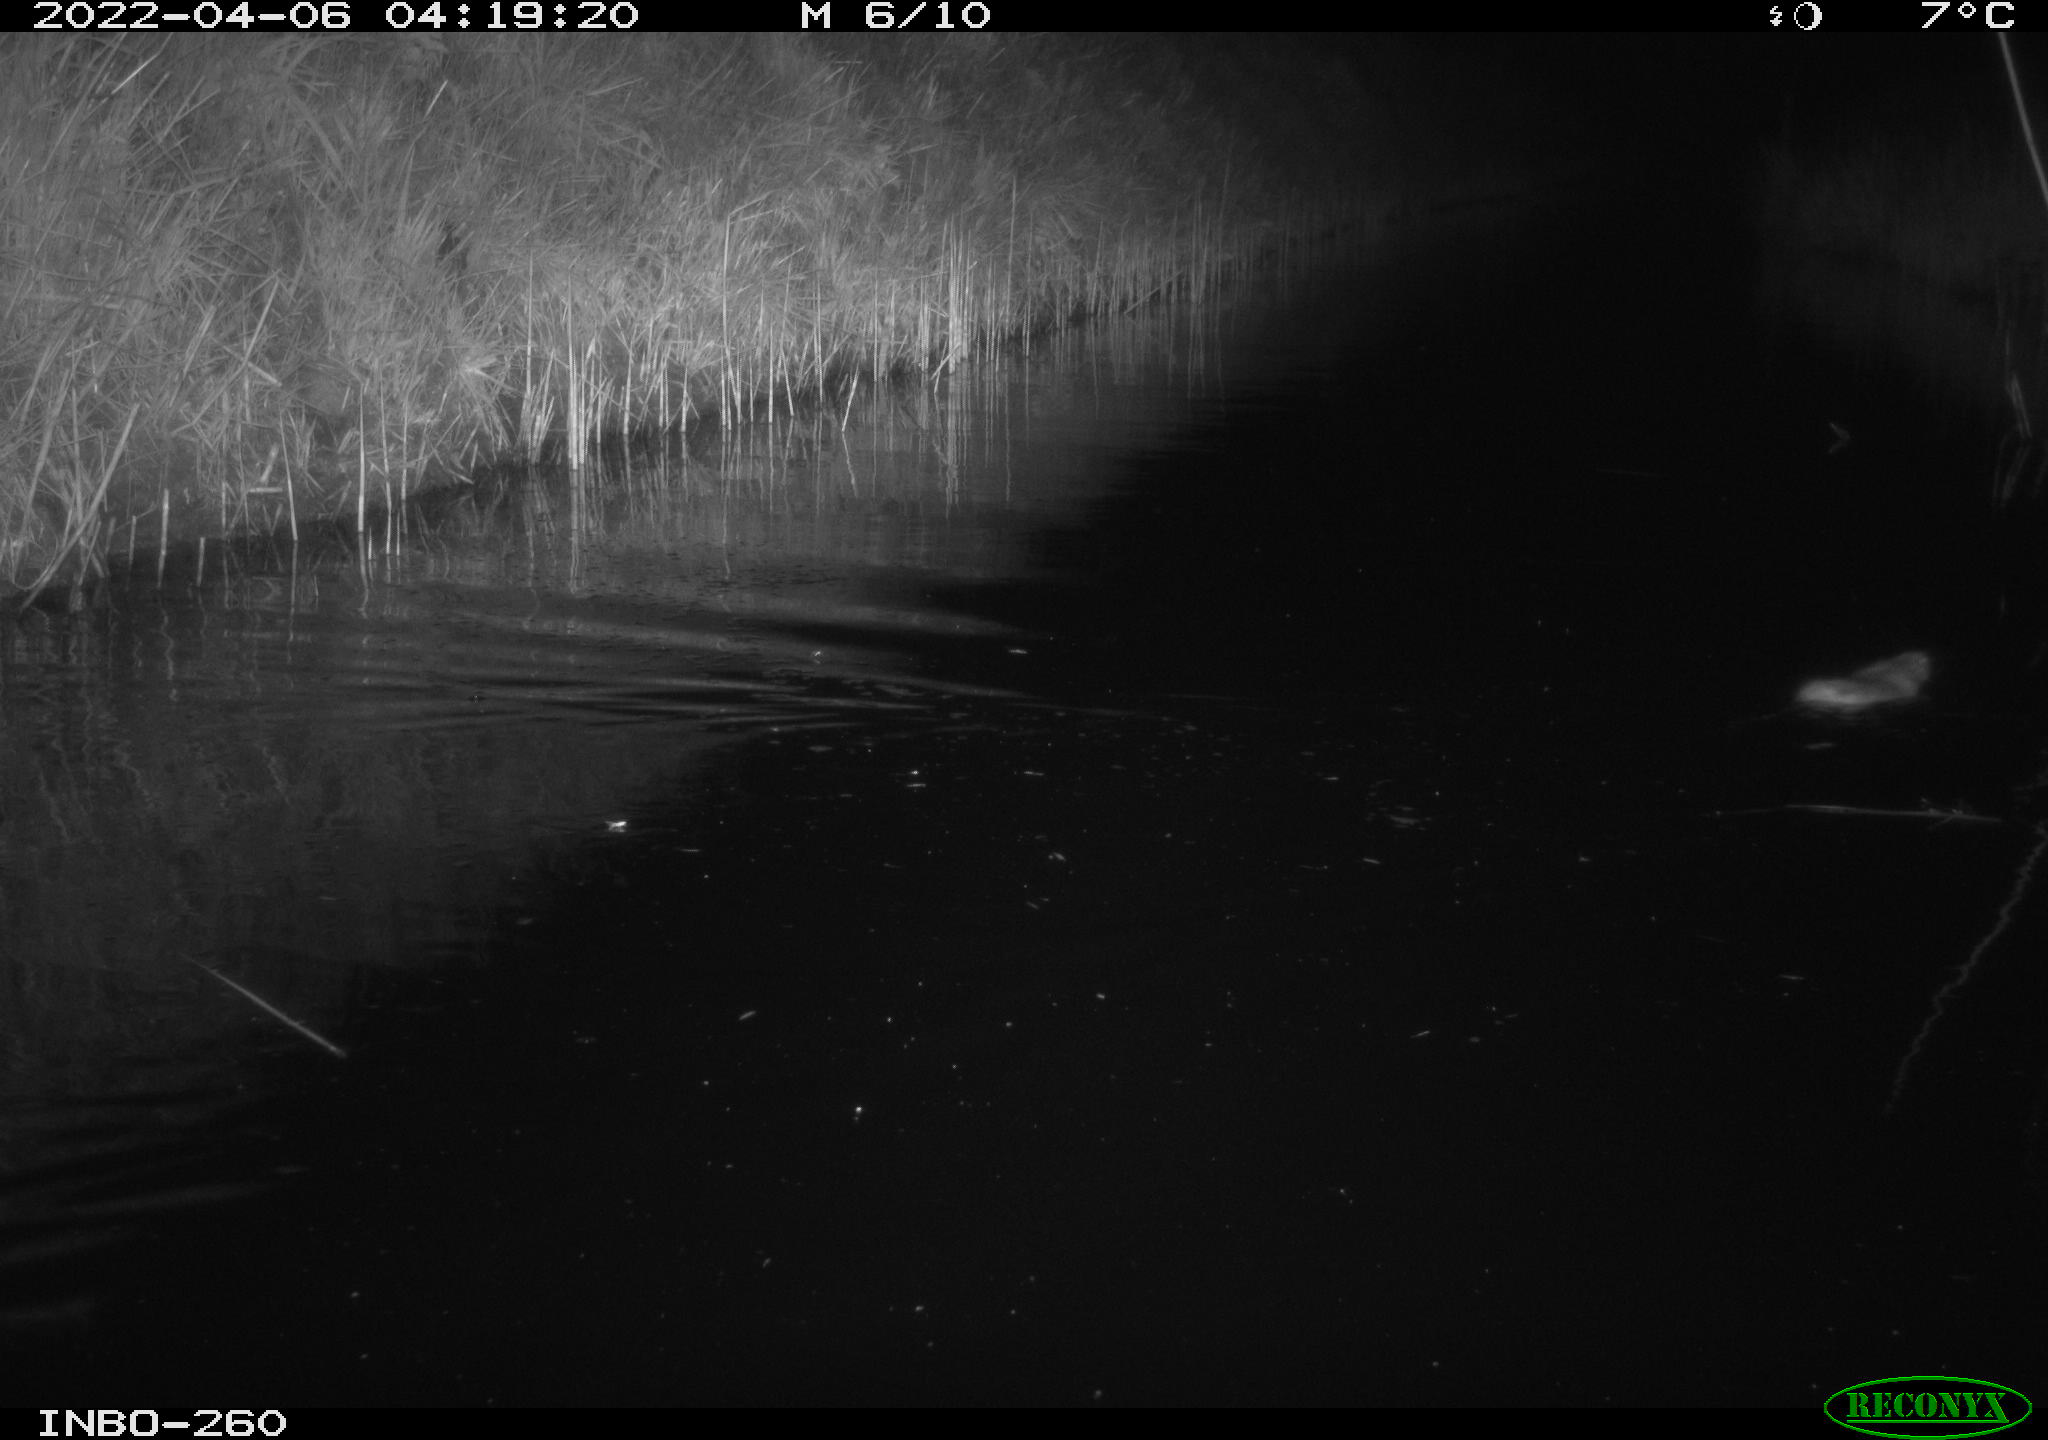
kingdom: Animalia
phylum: Chordata
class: Mammalia
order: Rodentia
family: Muridae
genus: Rattus
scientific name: Rattus norvegicus
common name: Brown rat
